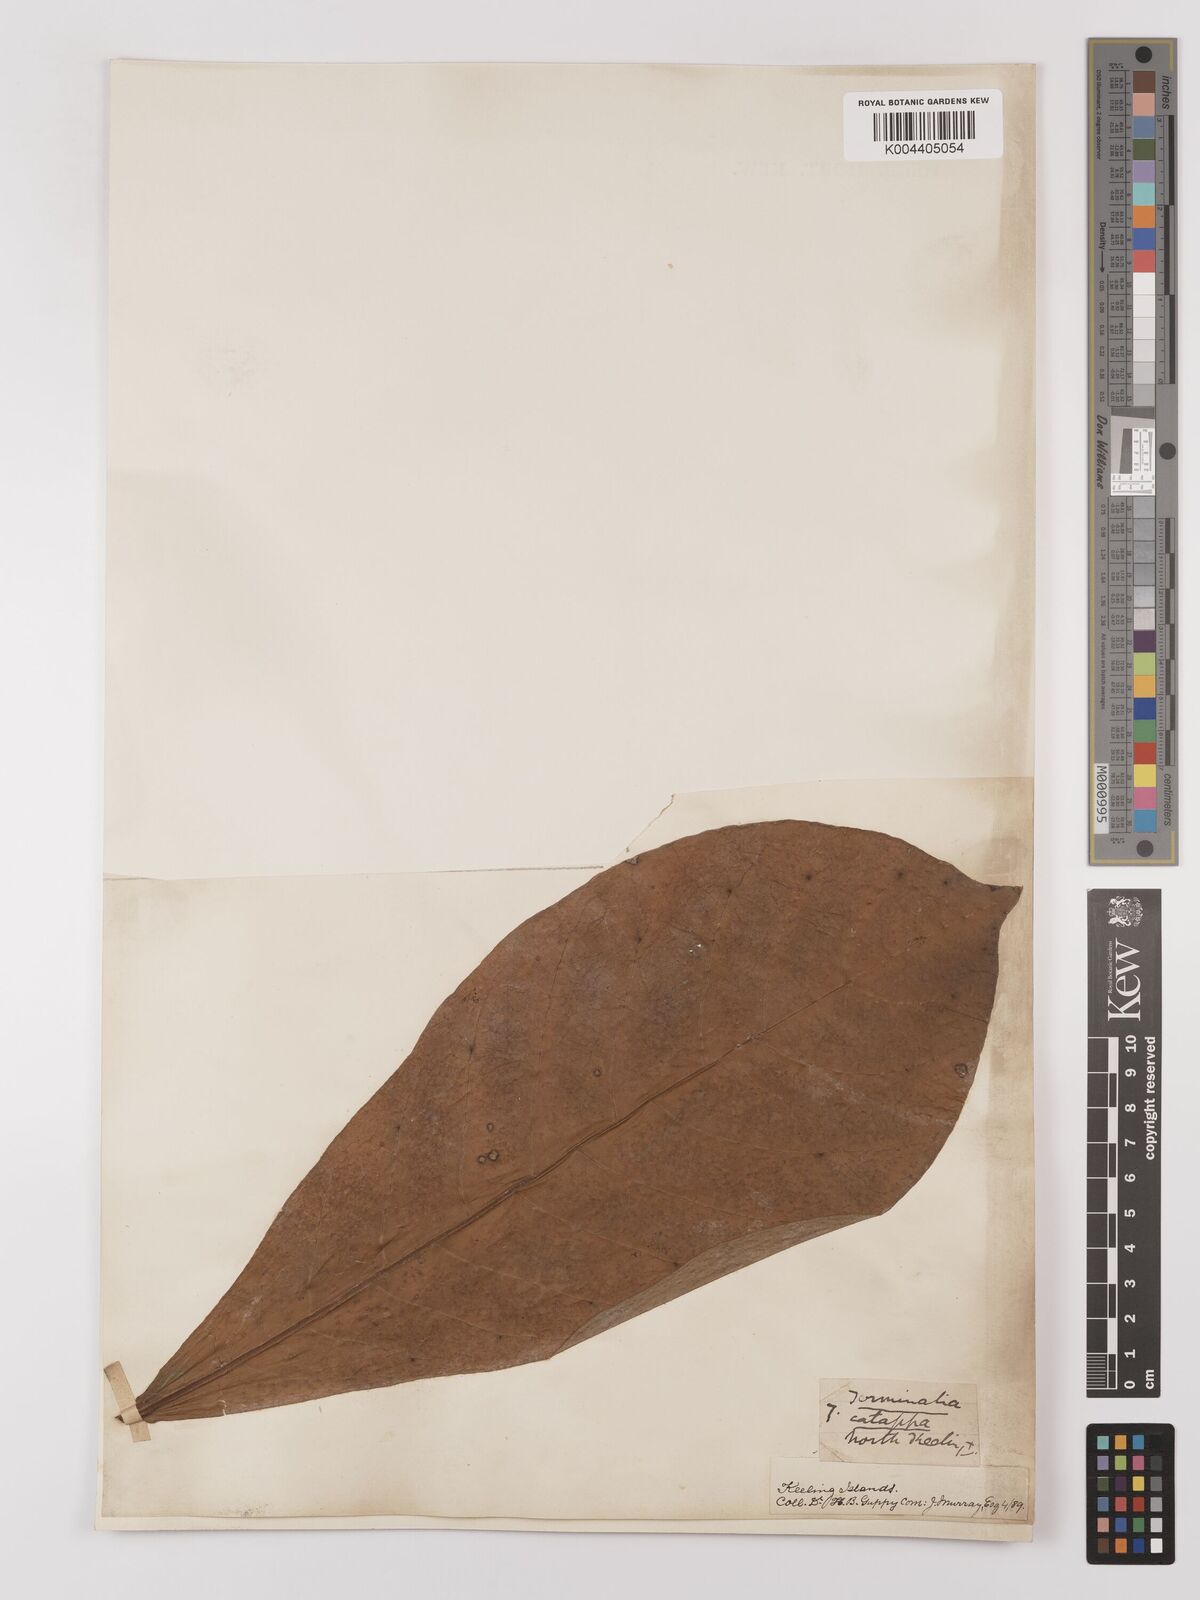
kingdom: Plantae
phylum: Tracheophyta
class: Magnoliopsida
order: Myrtales
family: Combretaceae
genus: Terminalia
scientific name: Terminalia catappa
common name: Tropical almond
